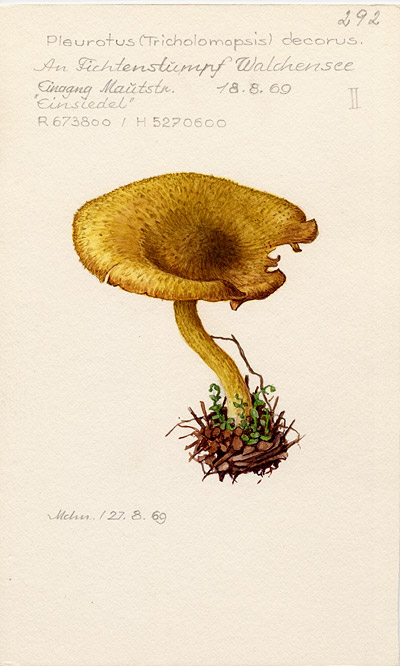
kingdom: Fungi
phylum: Basidiomycota
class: Agaricomycetes
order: Agaricales
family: Tricholomataceae
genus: Tricholomopsis
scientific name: Tricholomopsis decora
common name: Prunes and custard
